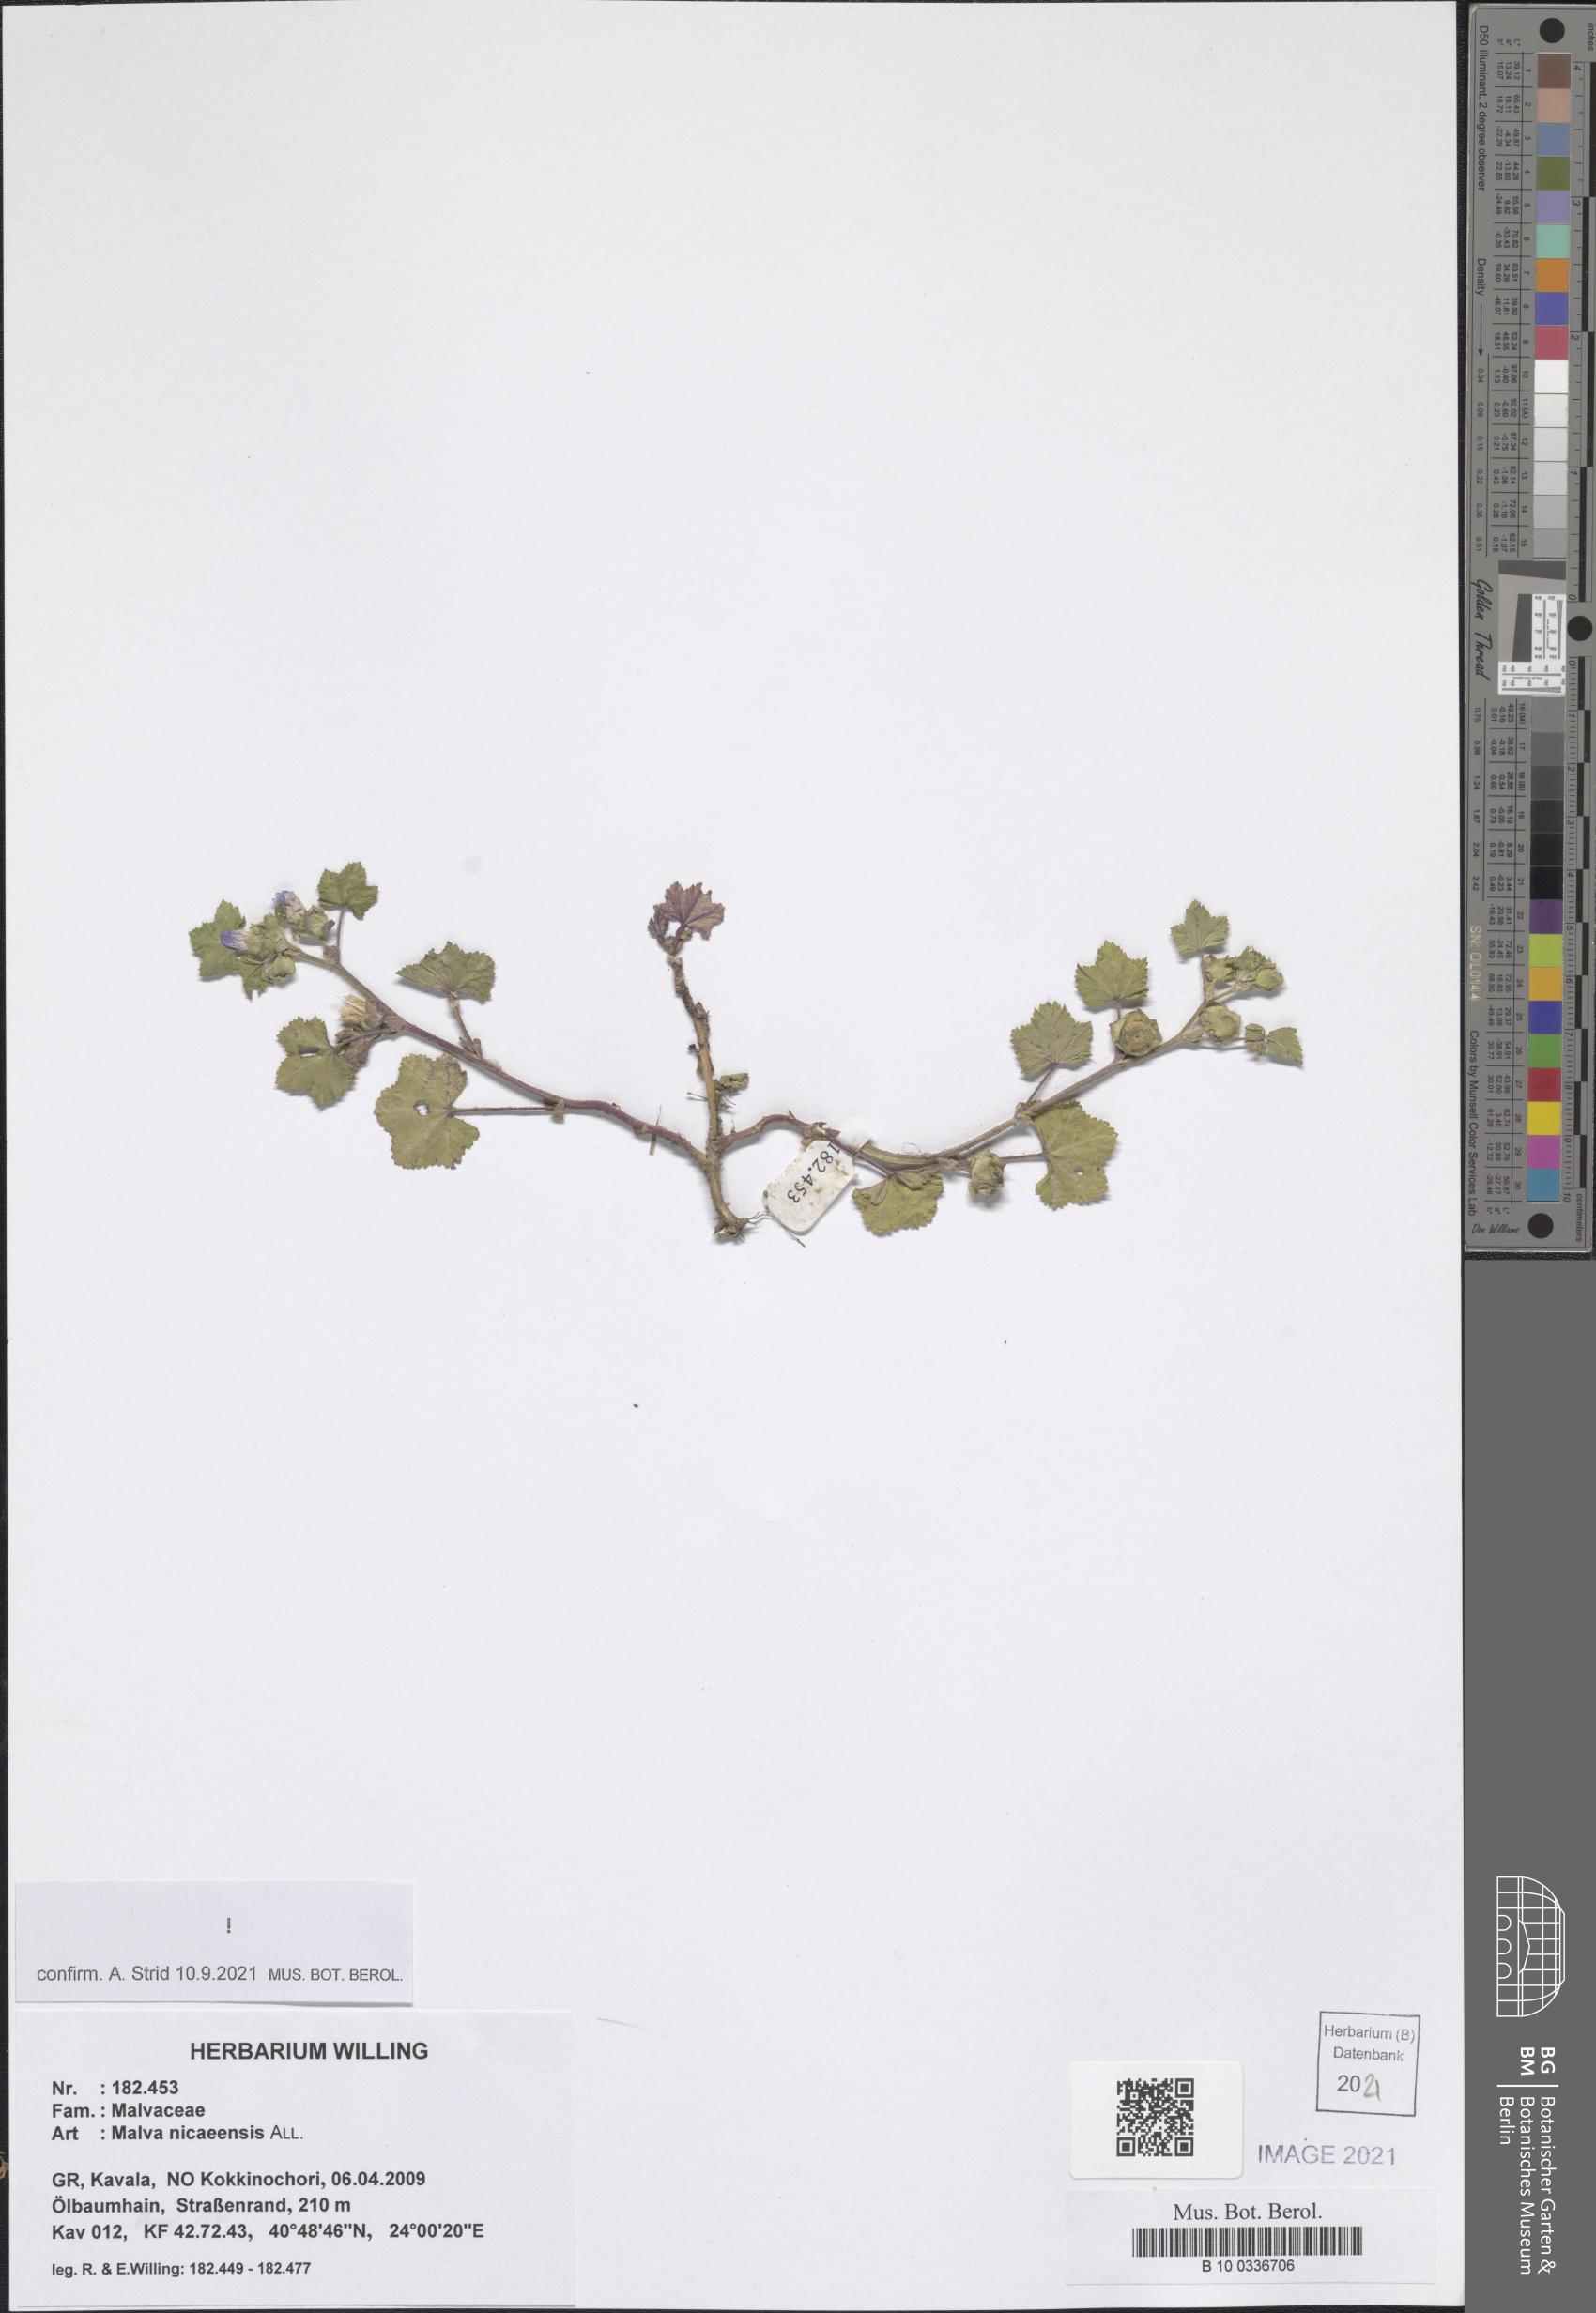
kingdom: Plantae
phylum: Tracheophyta
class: Magnoliopsida
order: Malvales
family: Malvaceae
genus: Malva
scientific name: Malva nicaeensis
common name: French mallow
